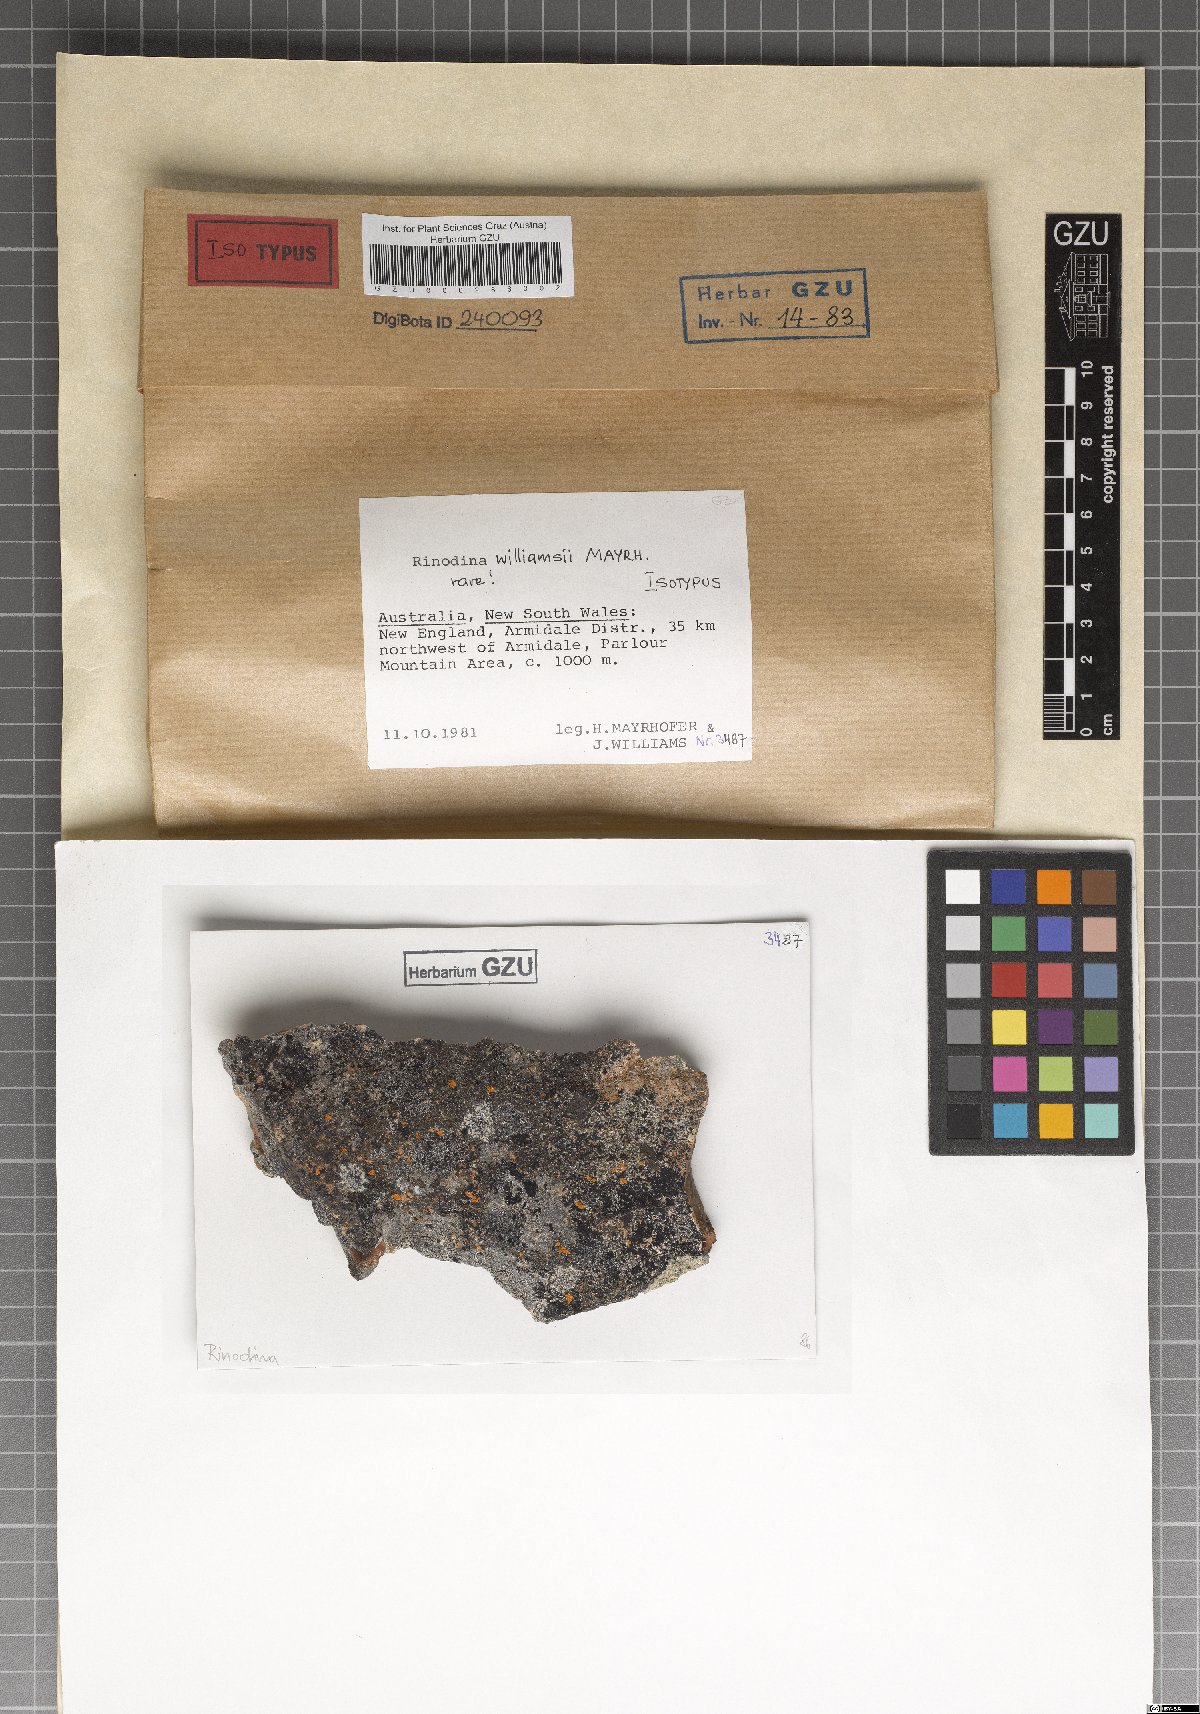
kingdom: Fungi
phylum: Ascomycota
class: Lecanoromycetes
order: Caliciales
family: Physciaceae
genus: Rinodina
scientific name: Rinodina williamsii
